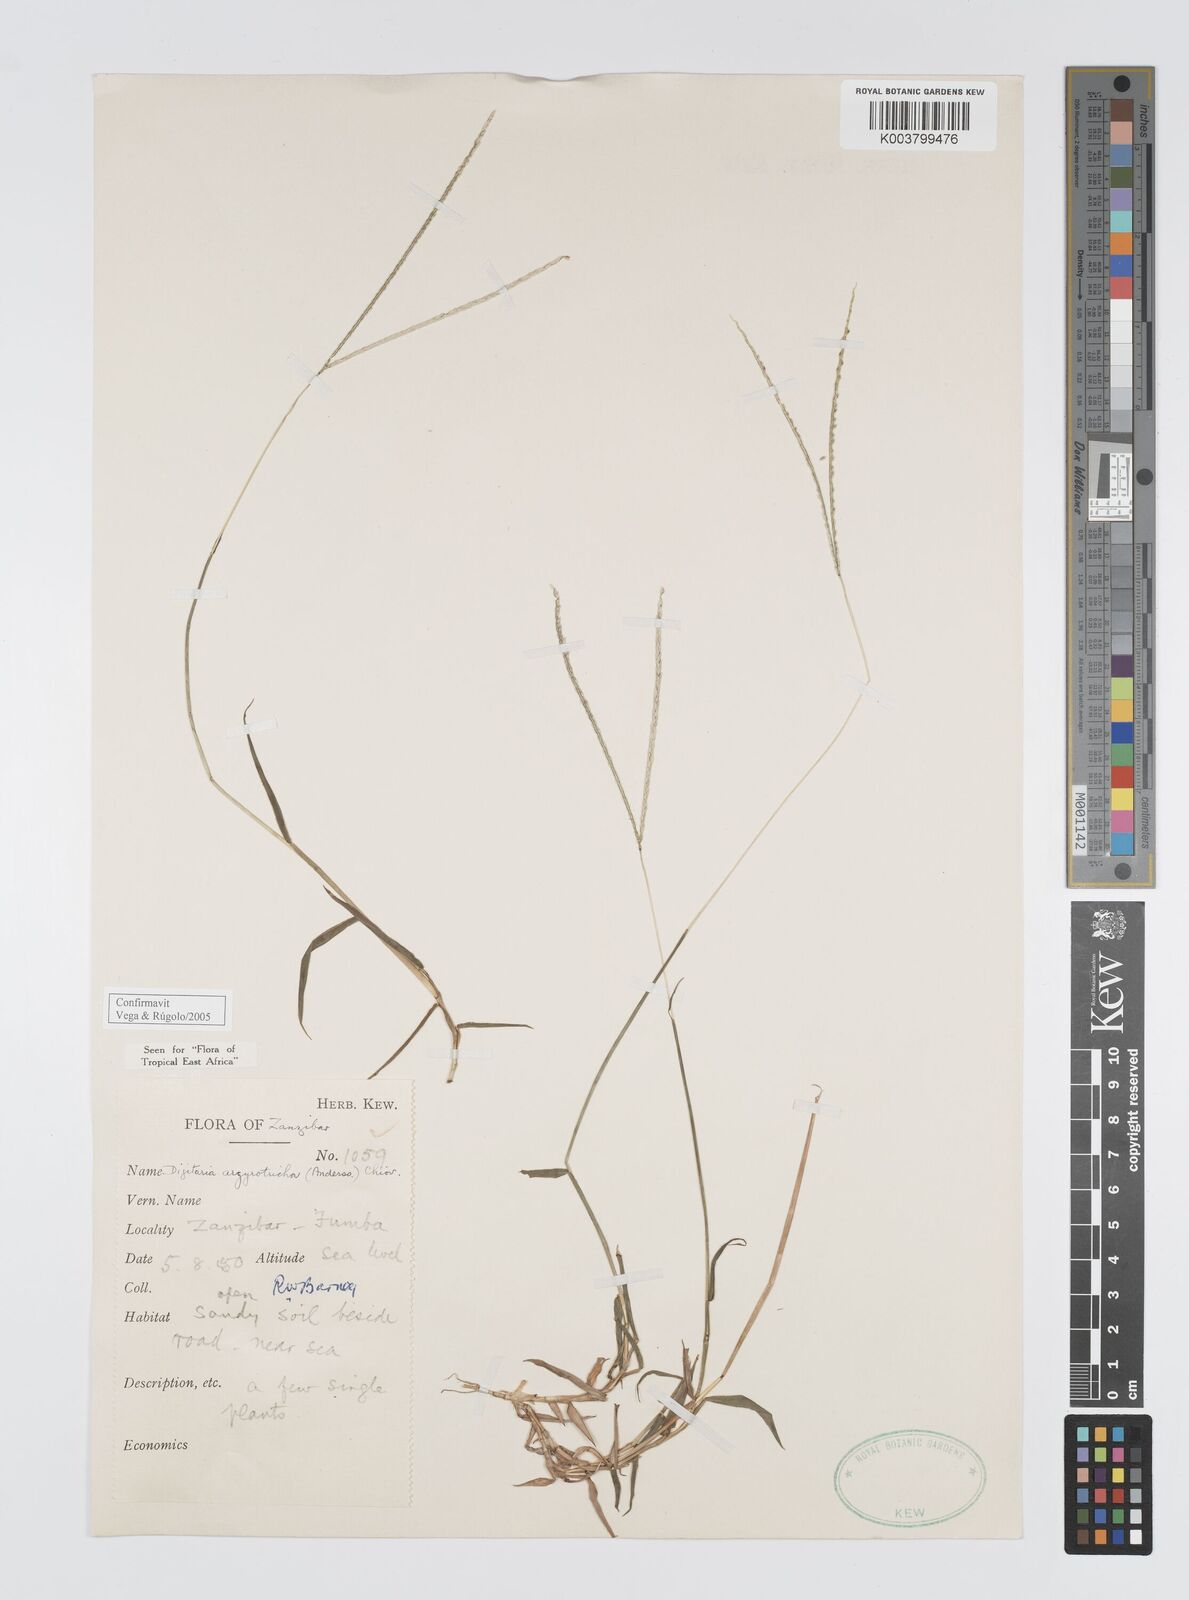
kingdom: Plantae
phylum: Tracheophyta
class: Liliopsida
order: Poales
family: Poaceae
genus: Digitaria
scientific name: Digitaria argyrotricha
